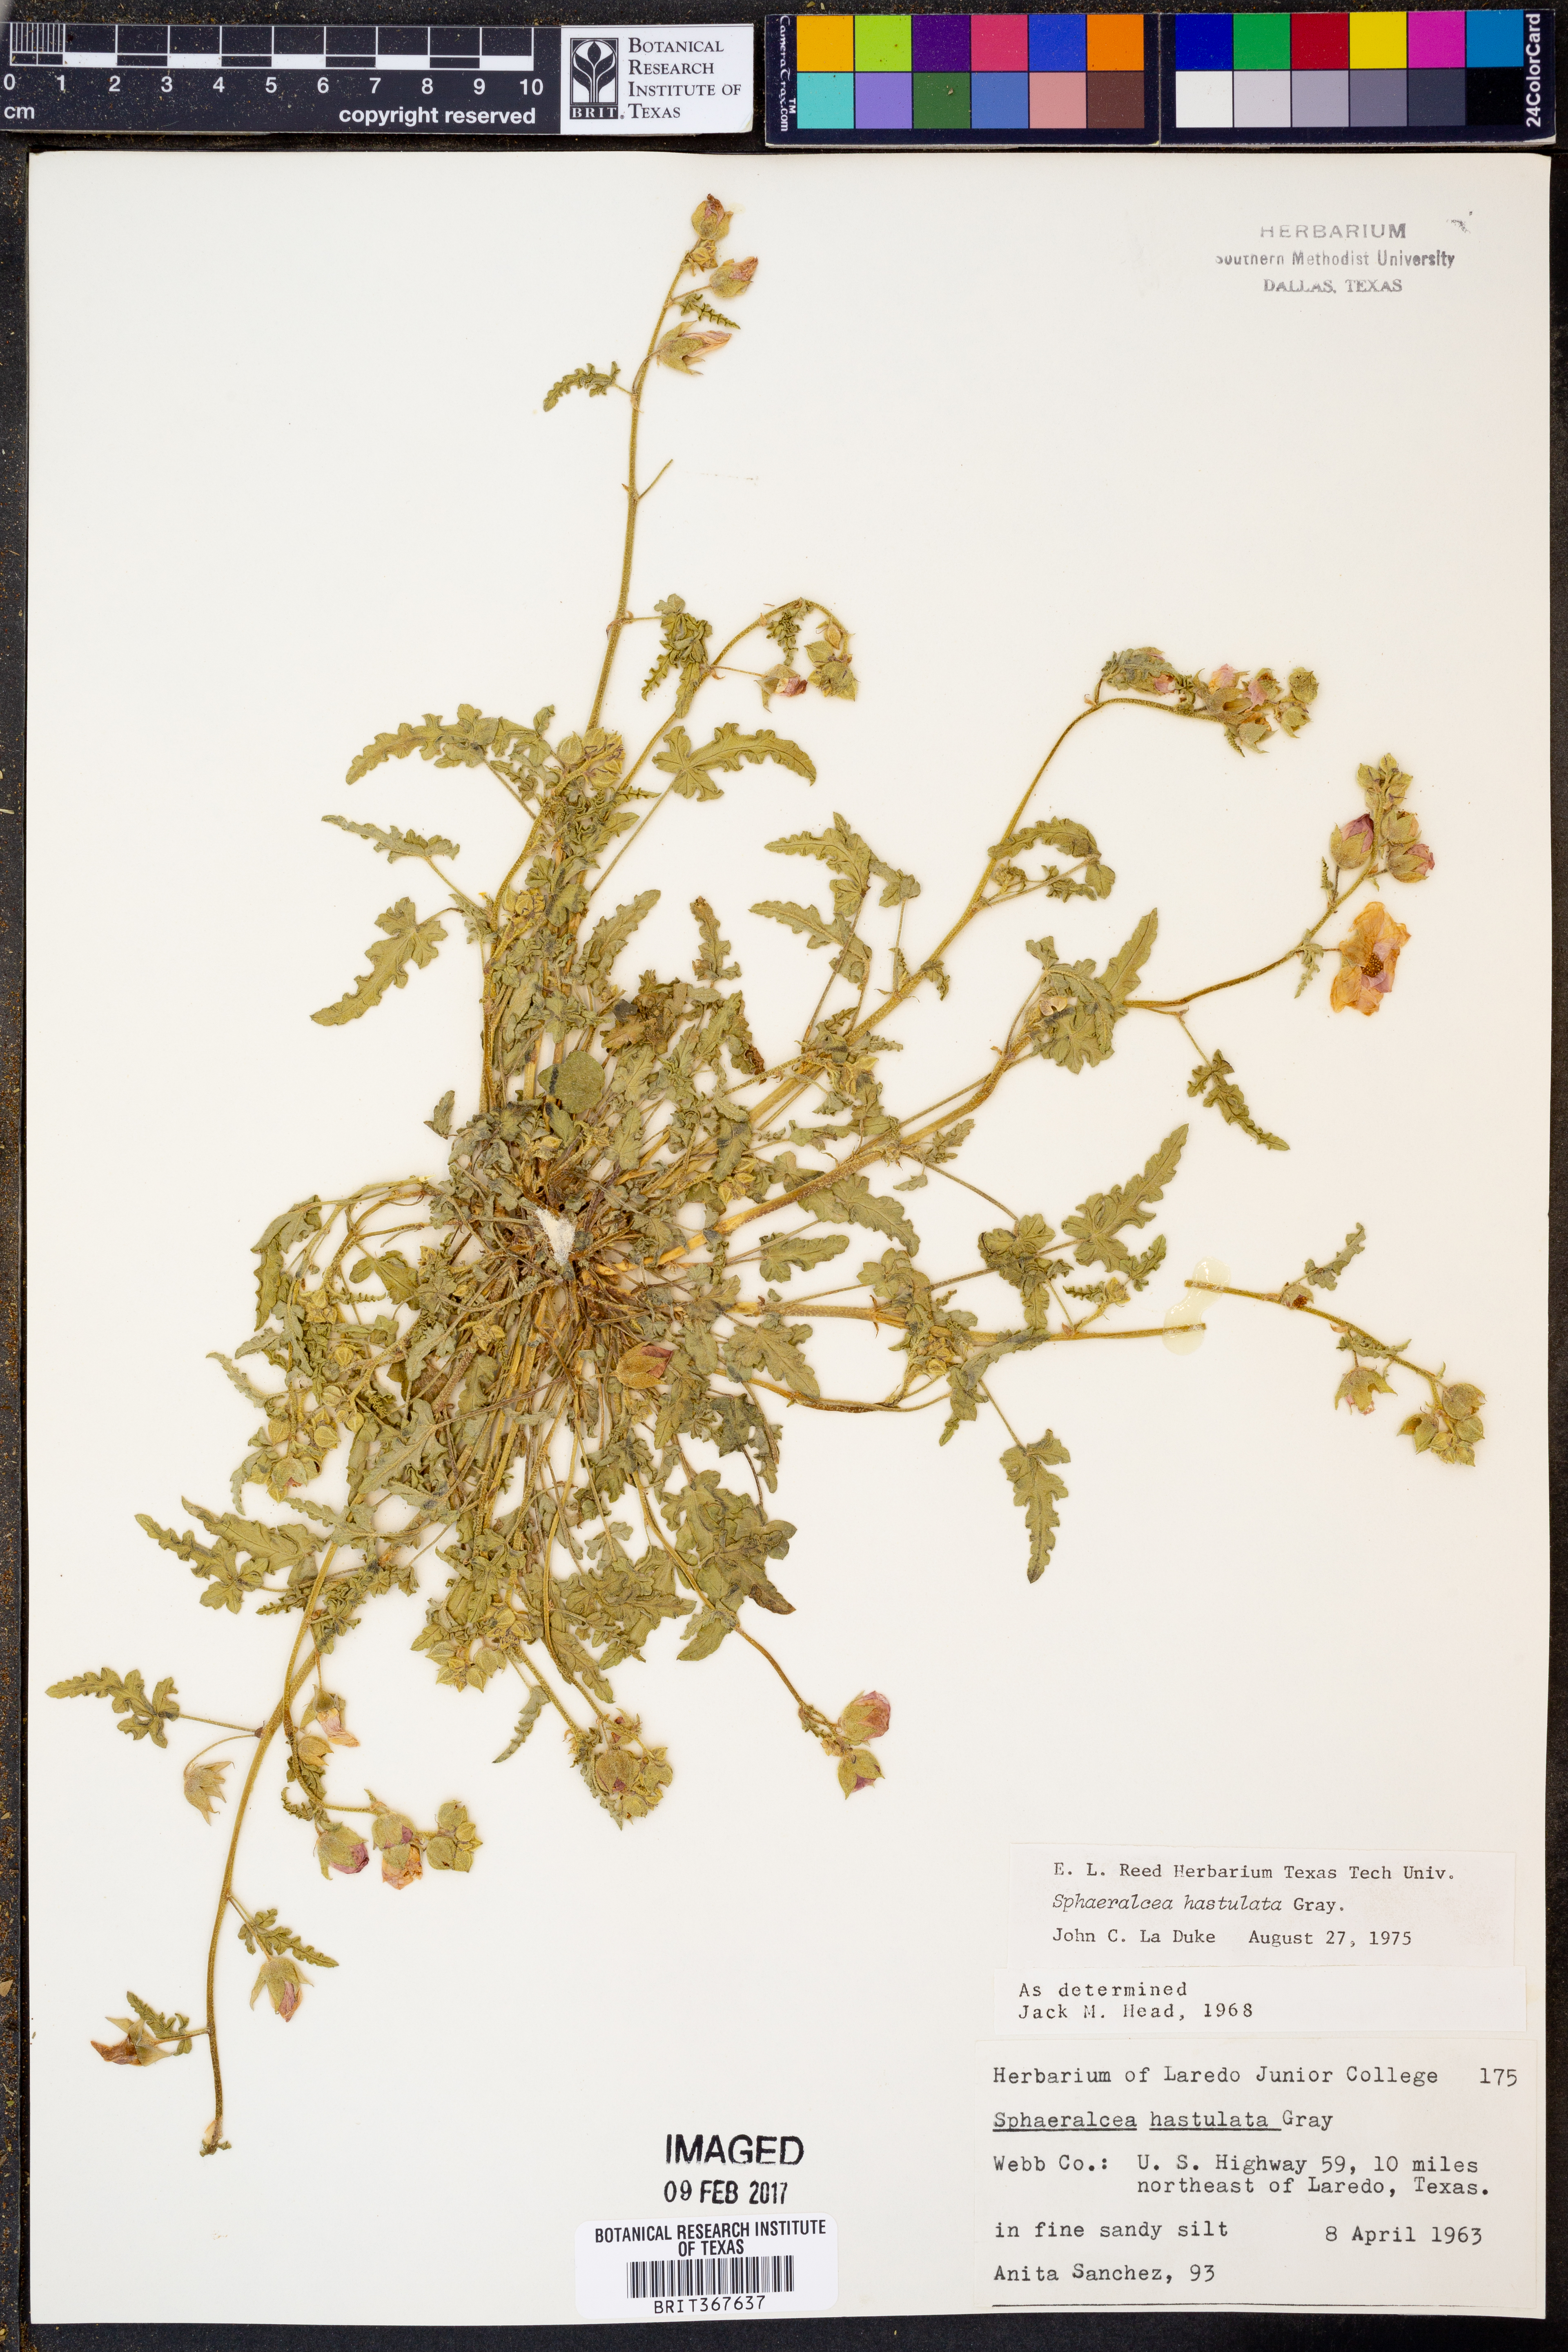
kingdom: Plantae
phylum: Tracheophyta
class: Magnoliopsida
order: Malvales
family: Malvaceae
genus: Sphaeralcea
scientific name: Sphaeralcea hastulata
